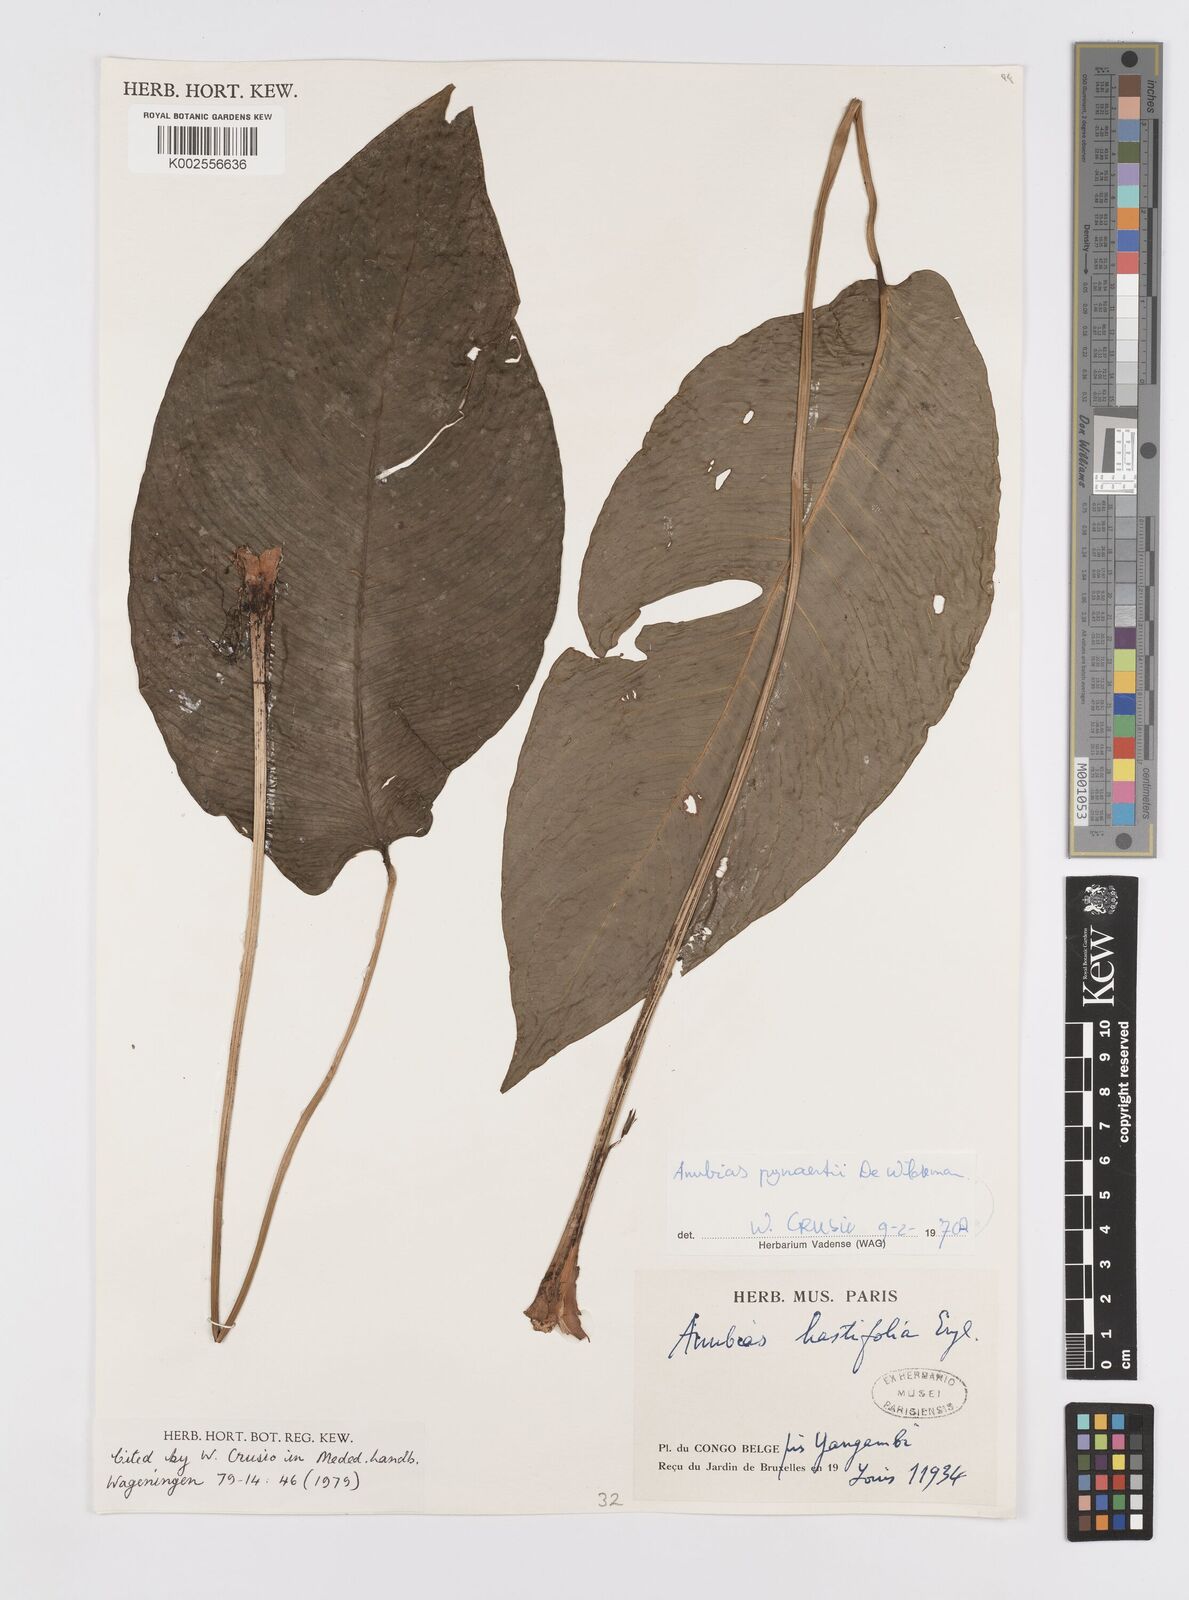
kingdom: Plantae
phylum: Tracheophyta
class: Liliopsida
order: Alismatales
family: Araceae
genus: Anubias
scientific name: Anubias pynaertii
